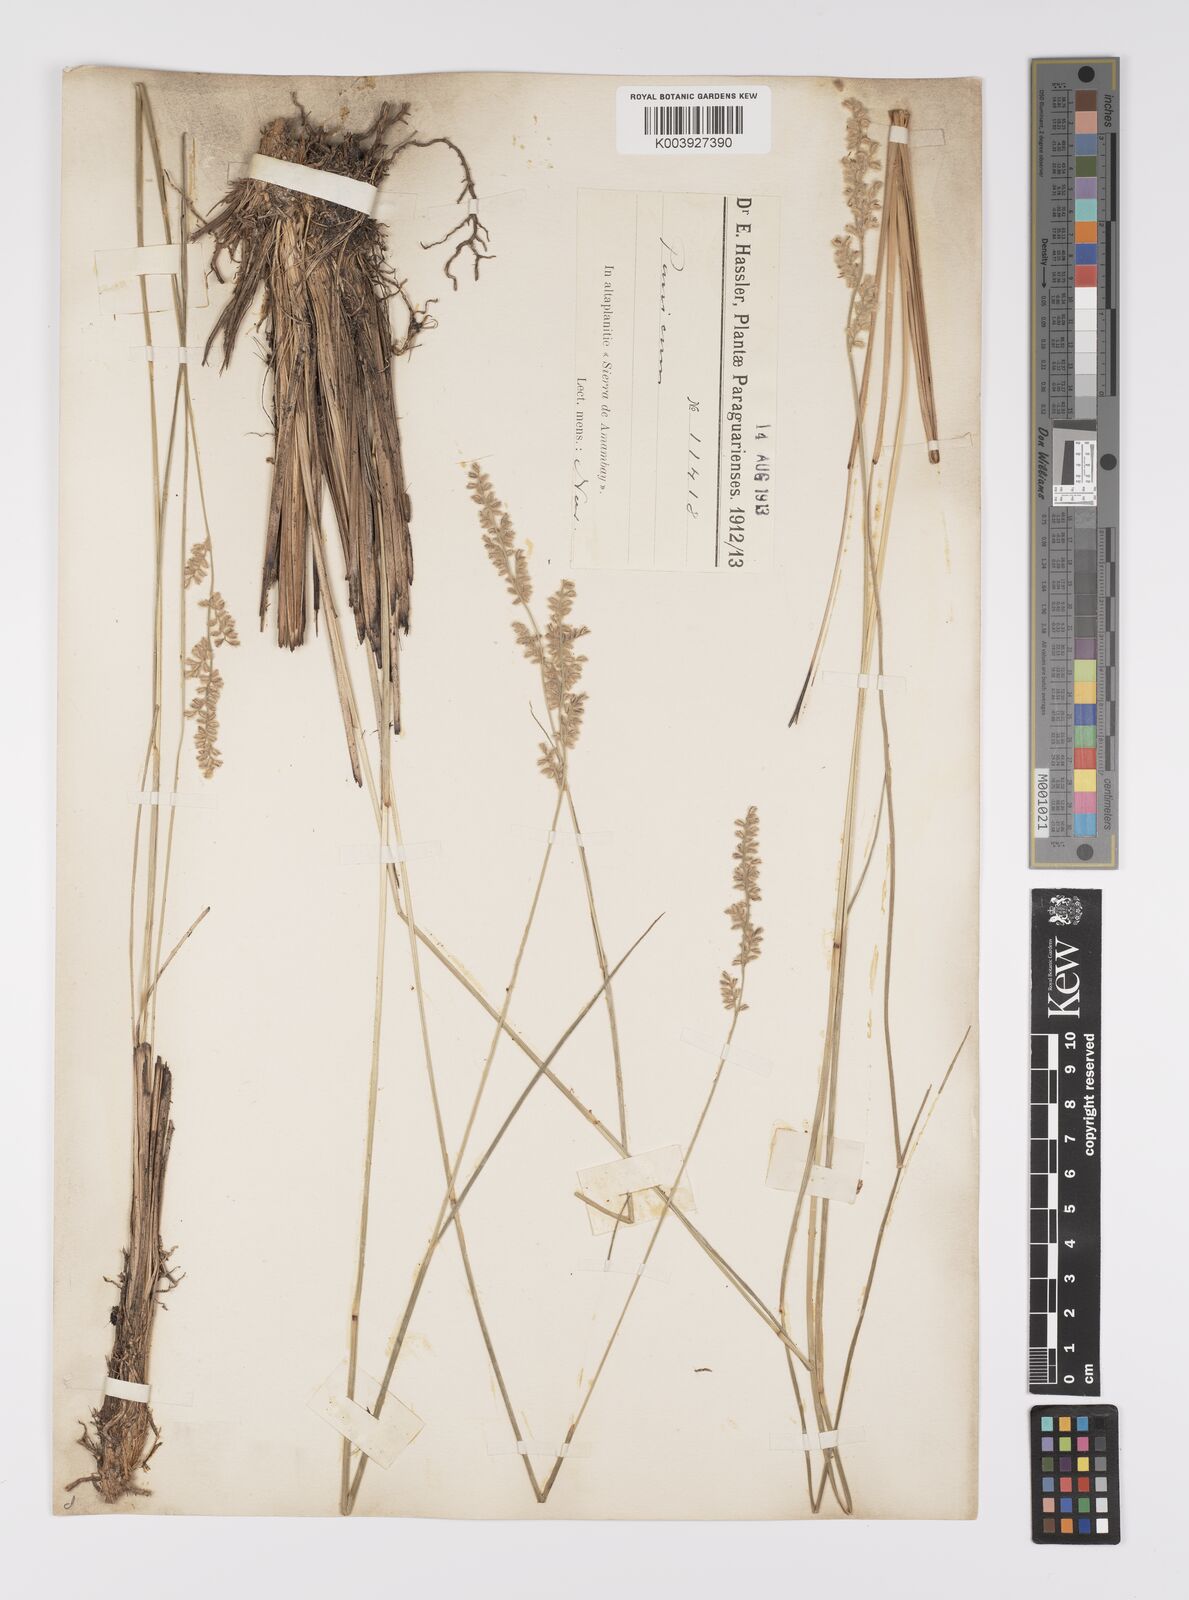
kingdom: Plantae
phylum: Tracheophyta
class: Liliopsida
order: Poales
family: Poaceae
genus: Anthaenantiopsis
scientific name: Anthaenantiopsis trachystachya
